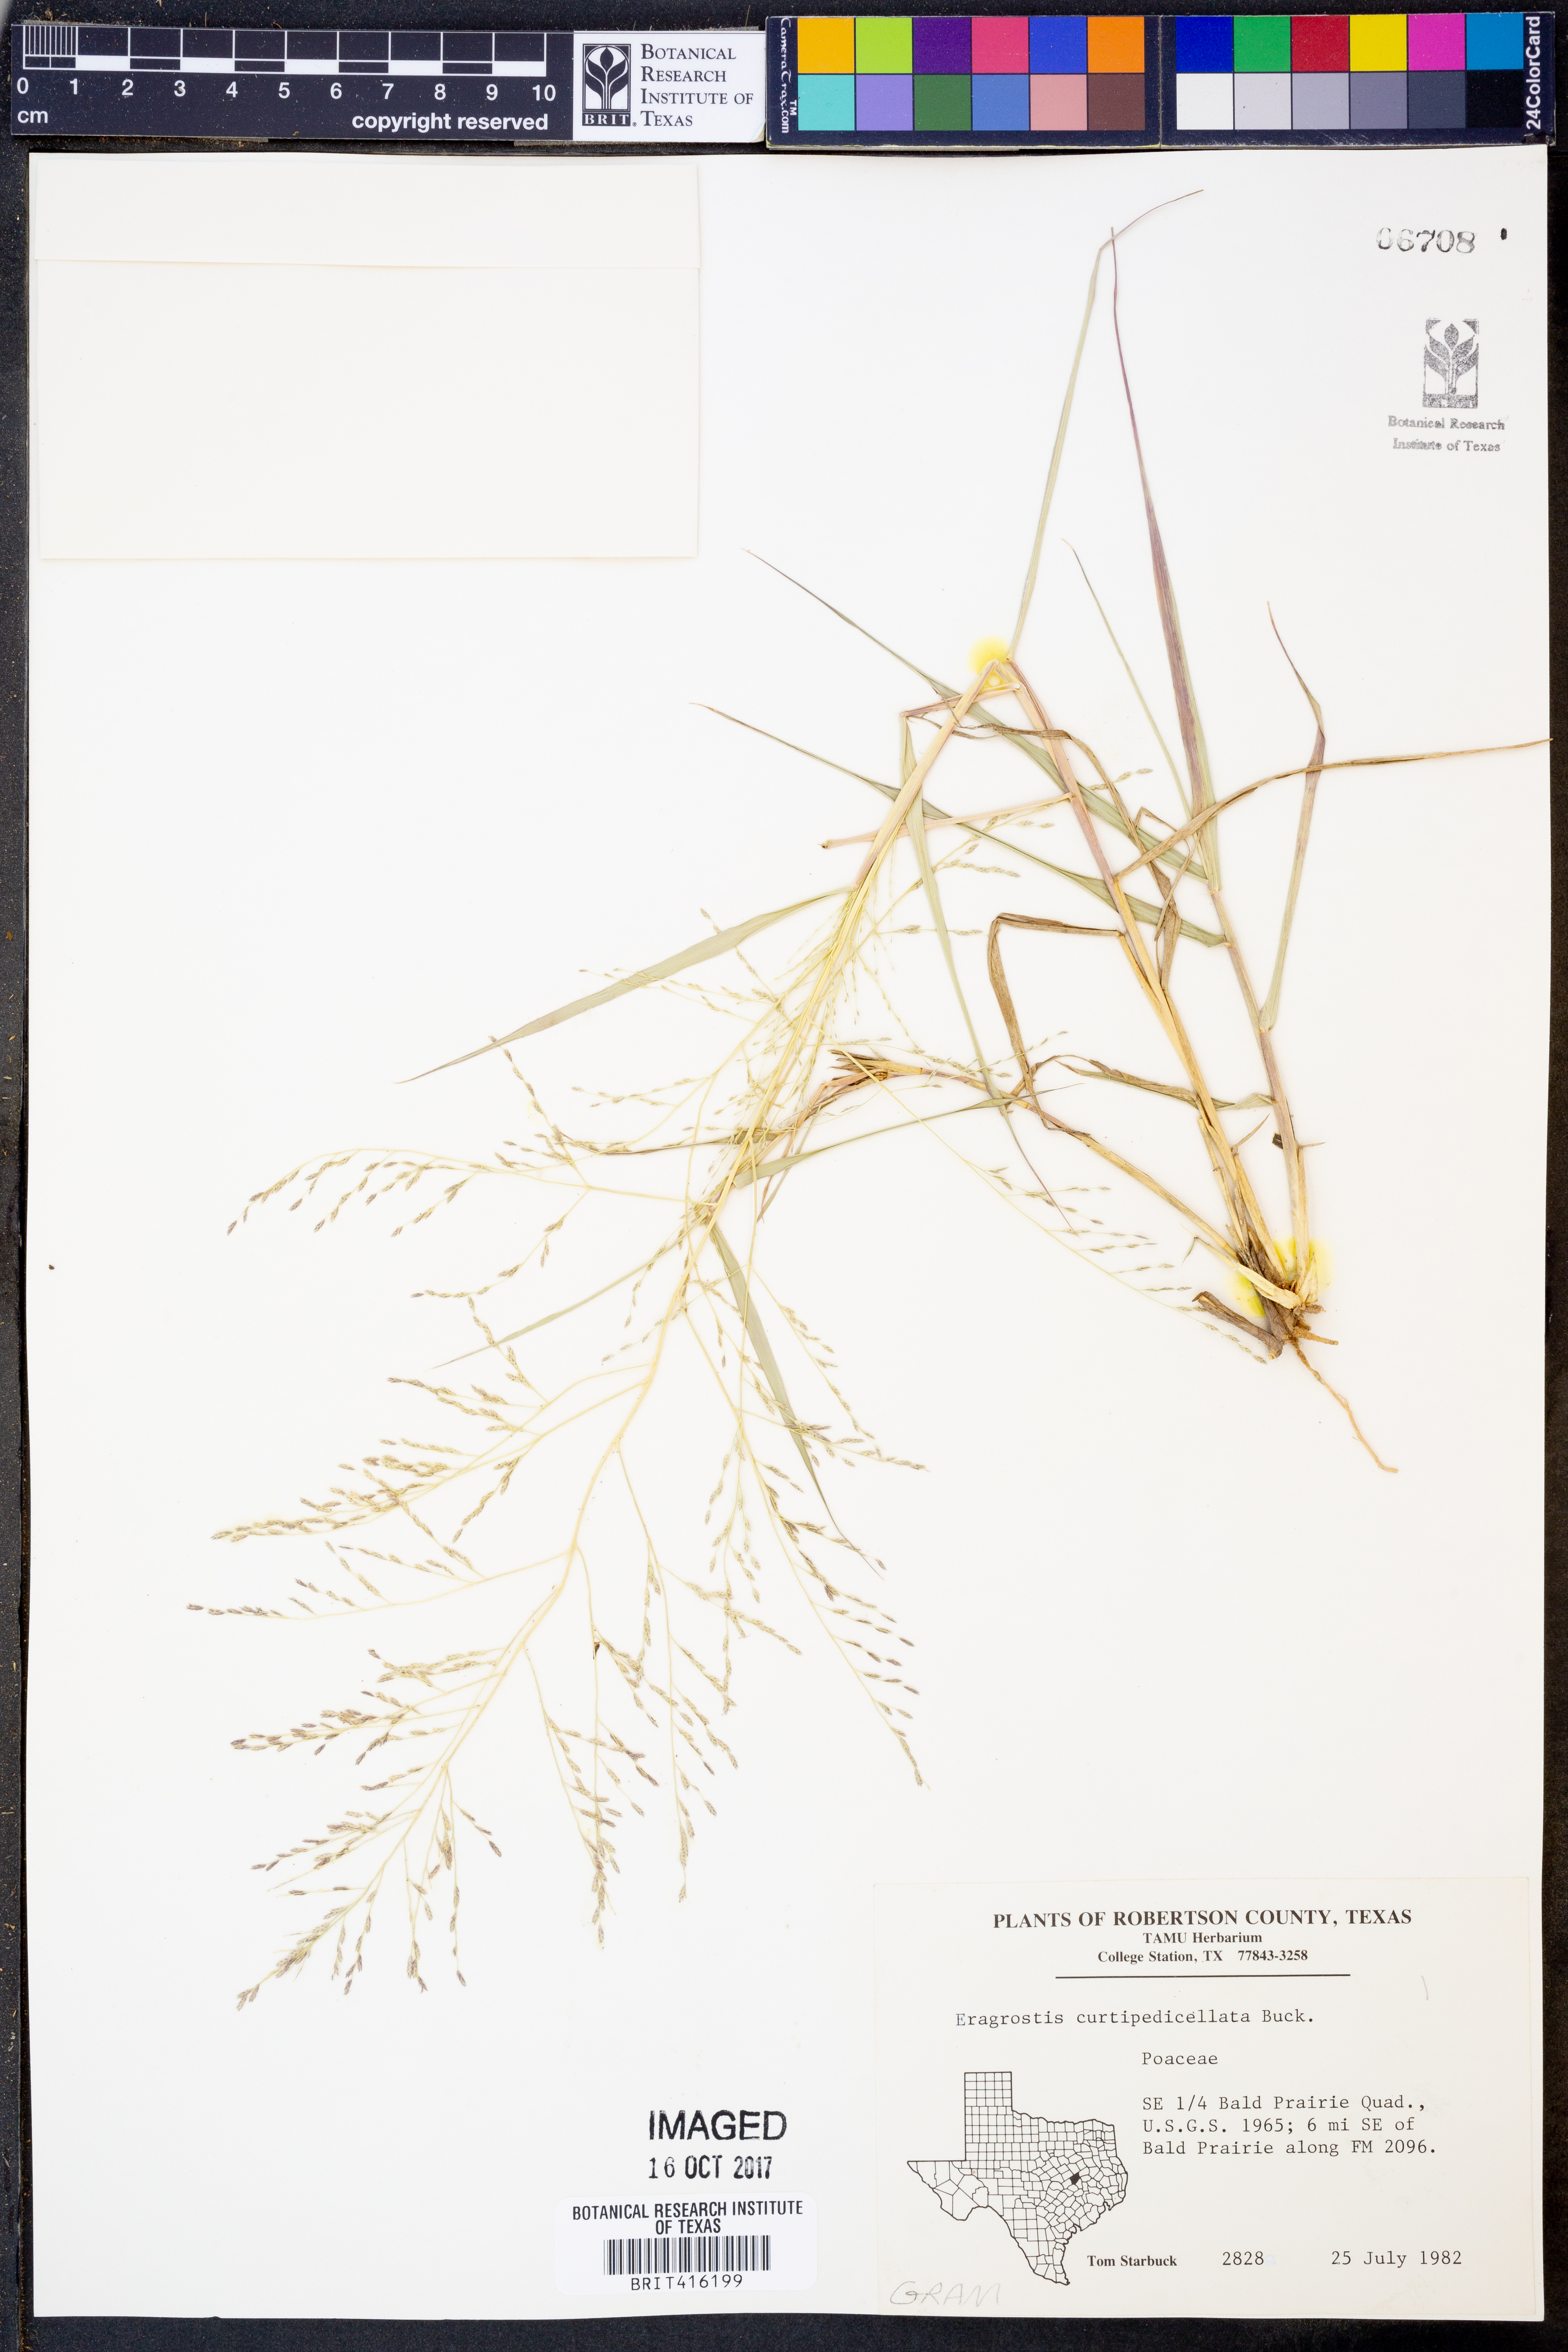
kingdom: Plantae
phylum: Tracheophyta
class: Liliopsida
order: Poales
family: Poaceae
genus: Eragrostis
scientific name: Eragrostis curtipedicellata
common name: Gummy love grass
